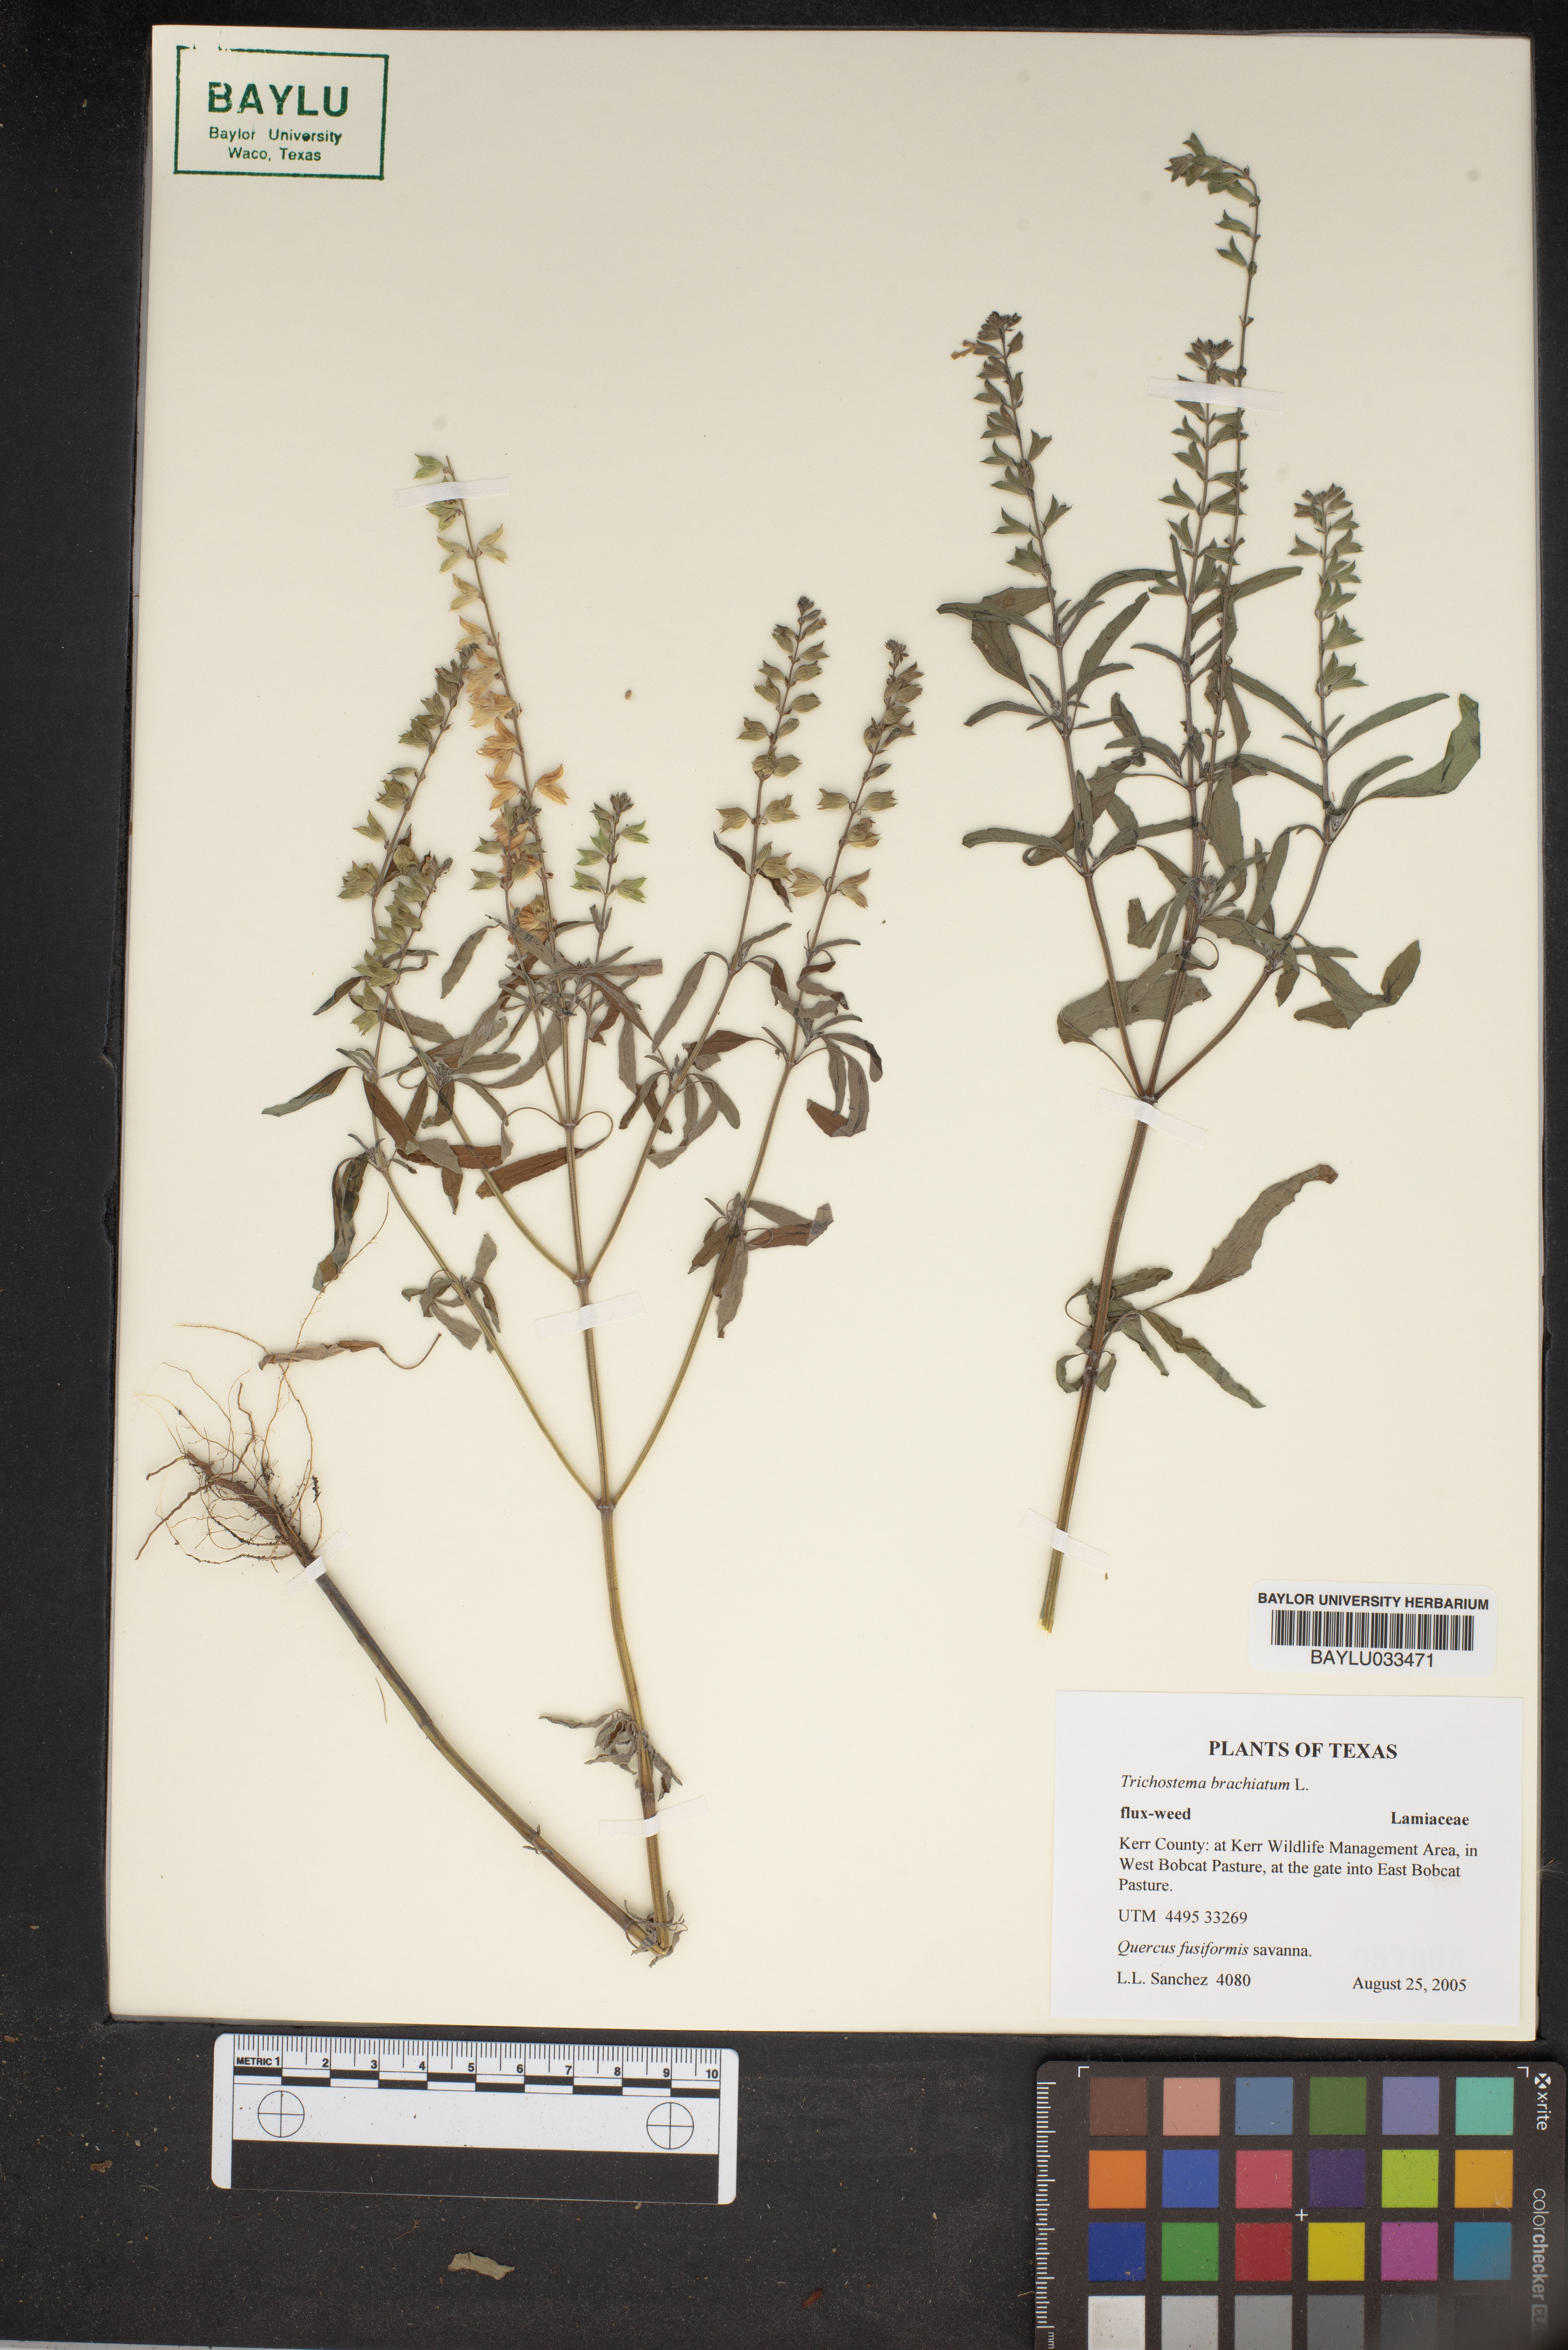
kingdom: Plantae
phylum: Tracheophyta
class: Magnoliopsida
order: Lamiales
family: Lamiaceae
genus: Trichostema
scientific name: Trichostema brachiatum
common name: False pennyroyal
